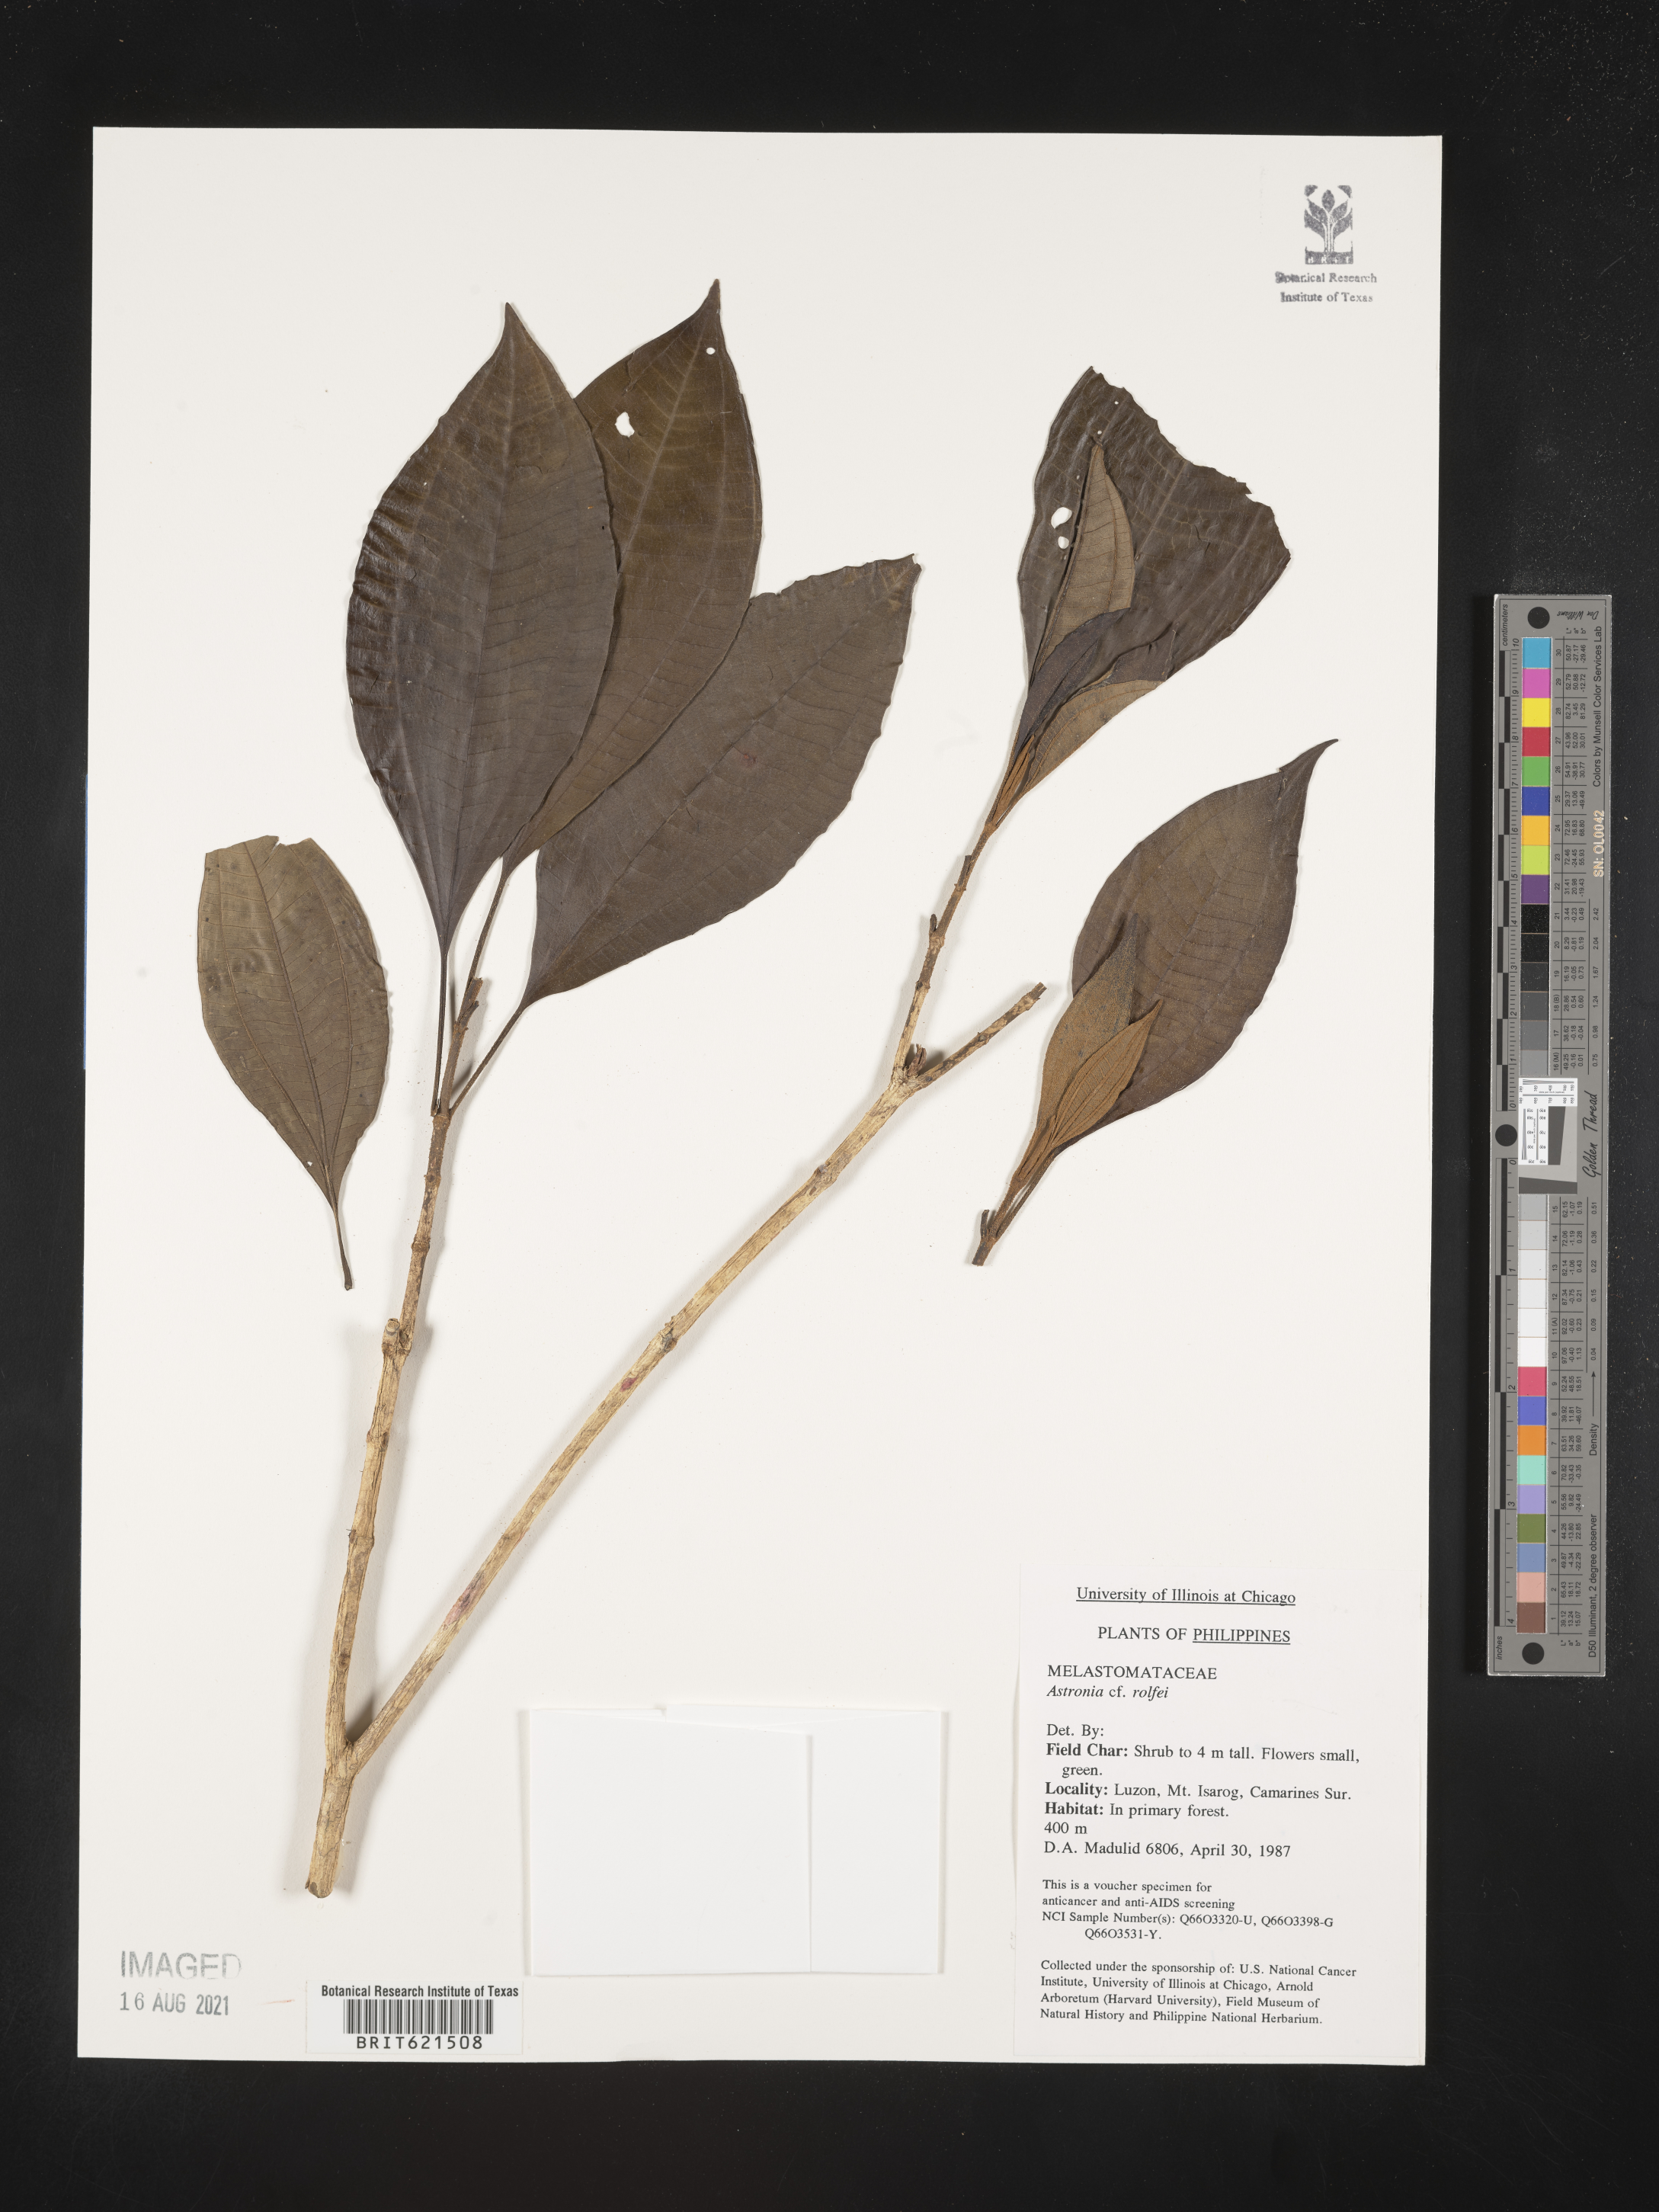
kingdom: Plantae
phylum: Tracheophyta
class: Magnoliopsida
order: Myrtales
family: Melastomataceae
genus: Astronia
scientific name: Astronia rolfei
